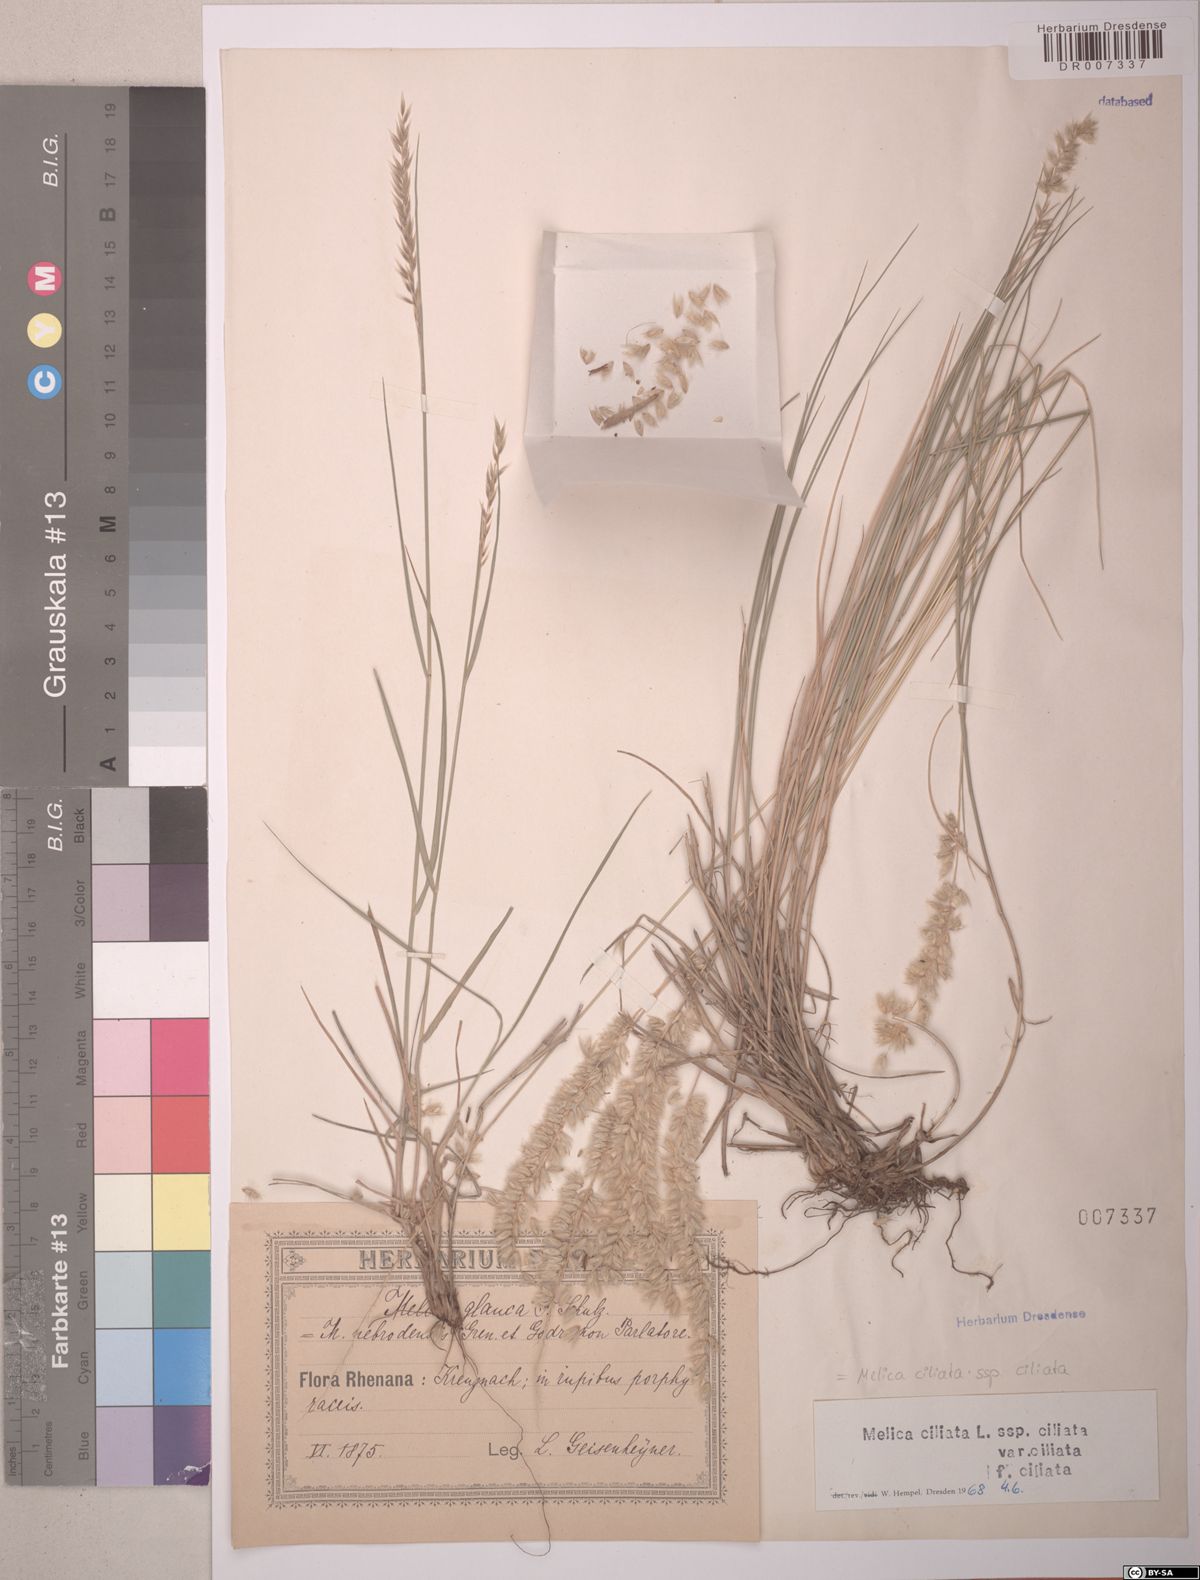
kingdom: Plantae
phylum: Tracheophyta
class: Liliopsida
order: Poales
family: Poaceae
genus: Melica
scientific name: Melica ciliata
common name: Hairy melicgrass
